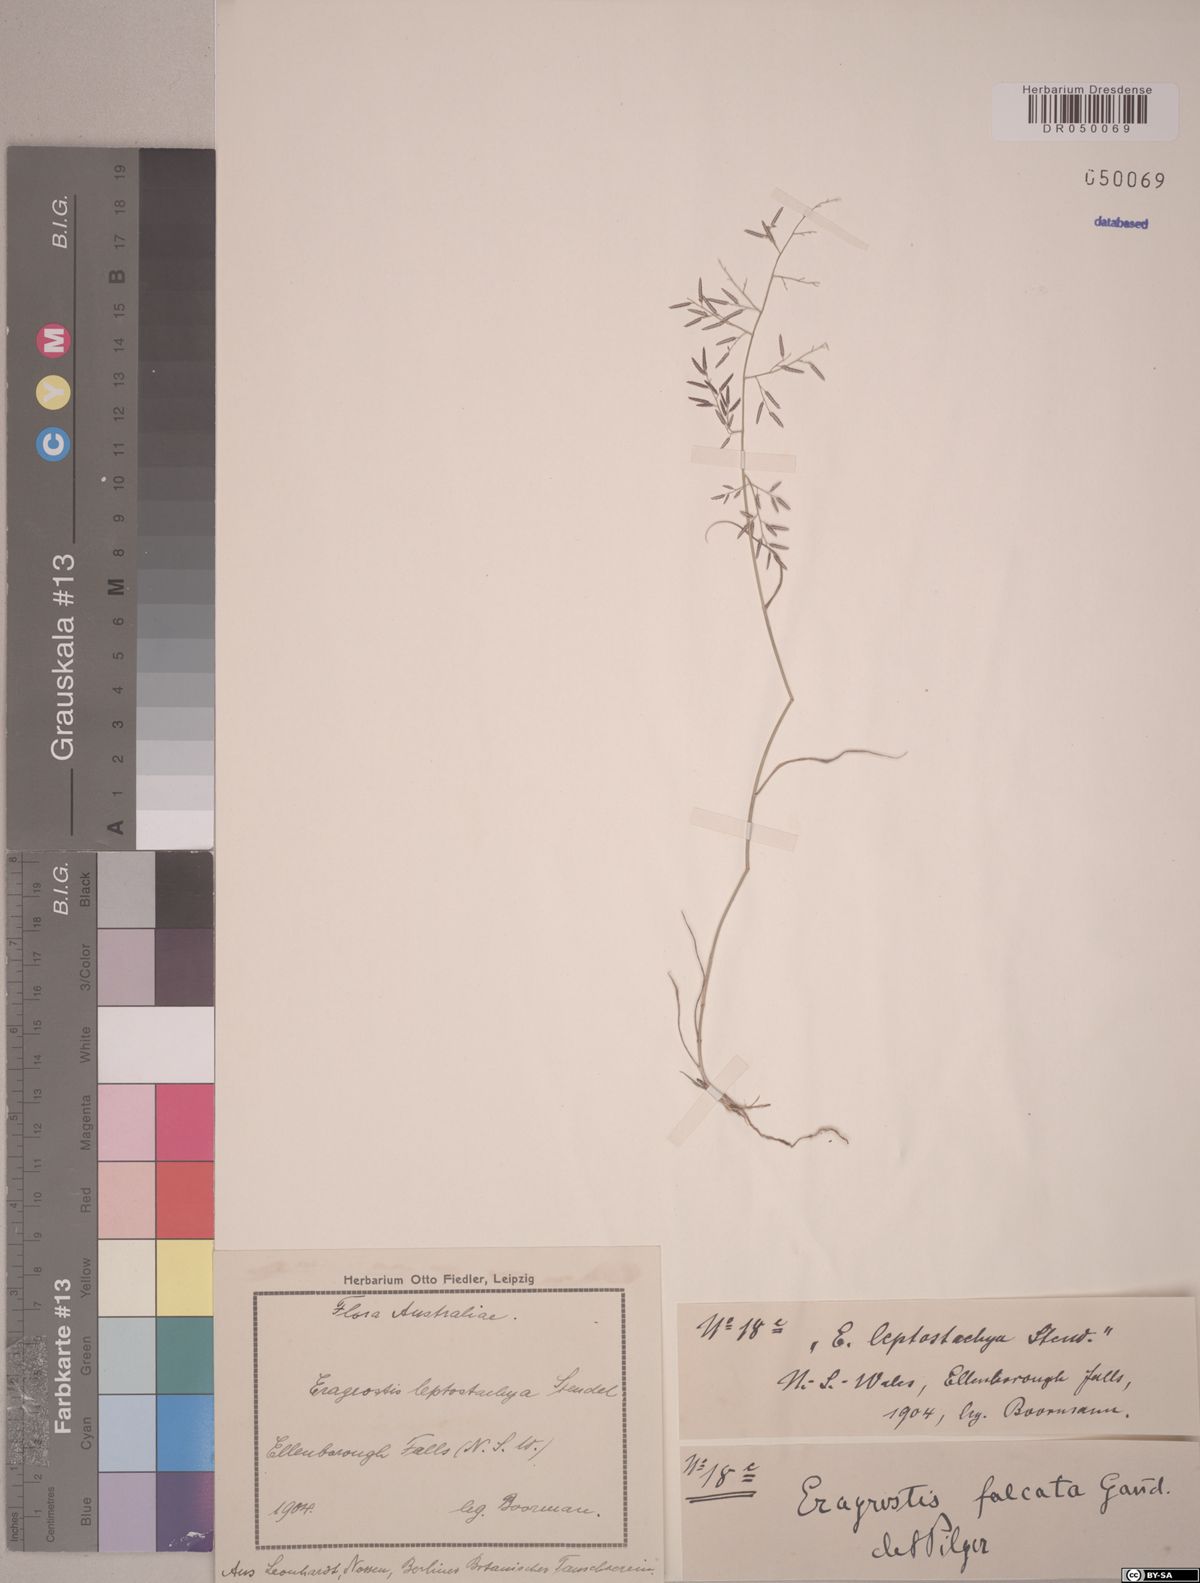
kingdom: Plantae
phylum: Tracheophyta
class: Liliopsida
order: Poales
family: Poaceae
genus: Eragrostis
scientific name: Eragrostis falcata
